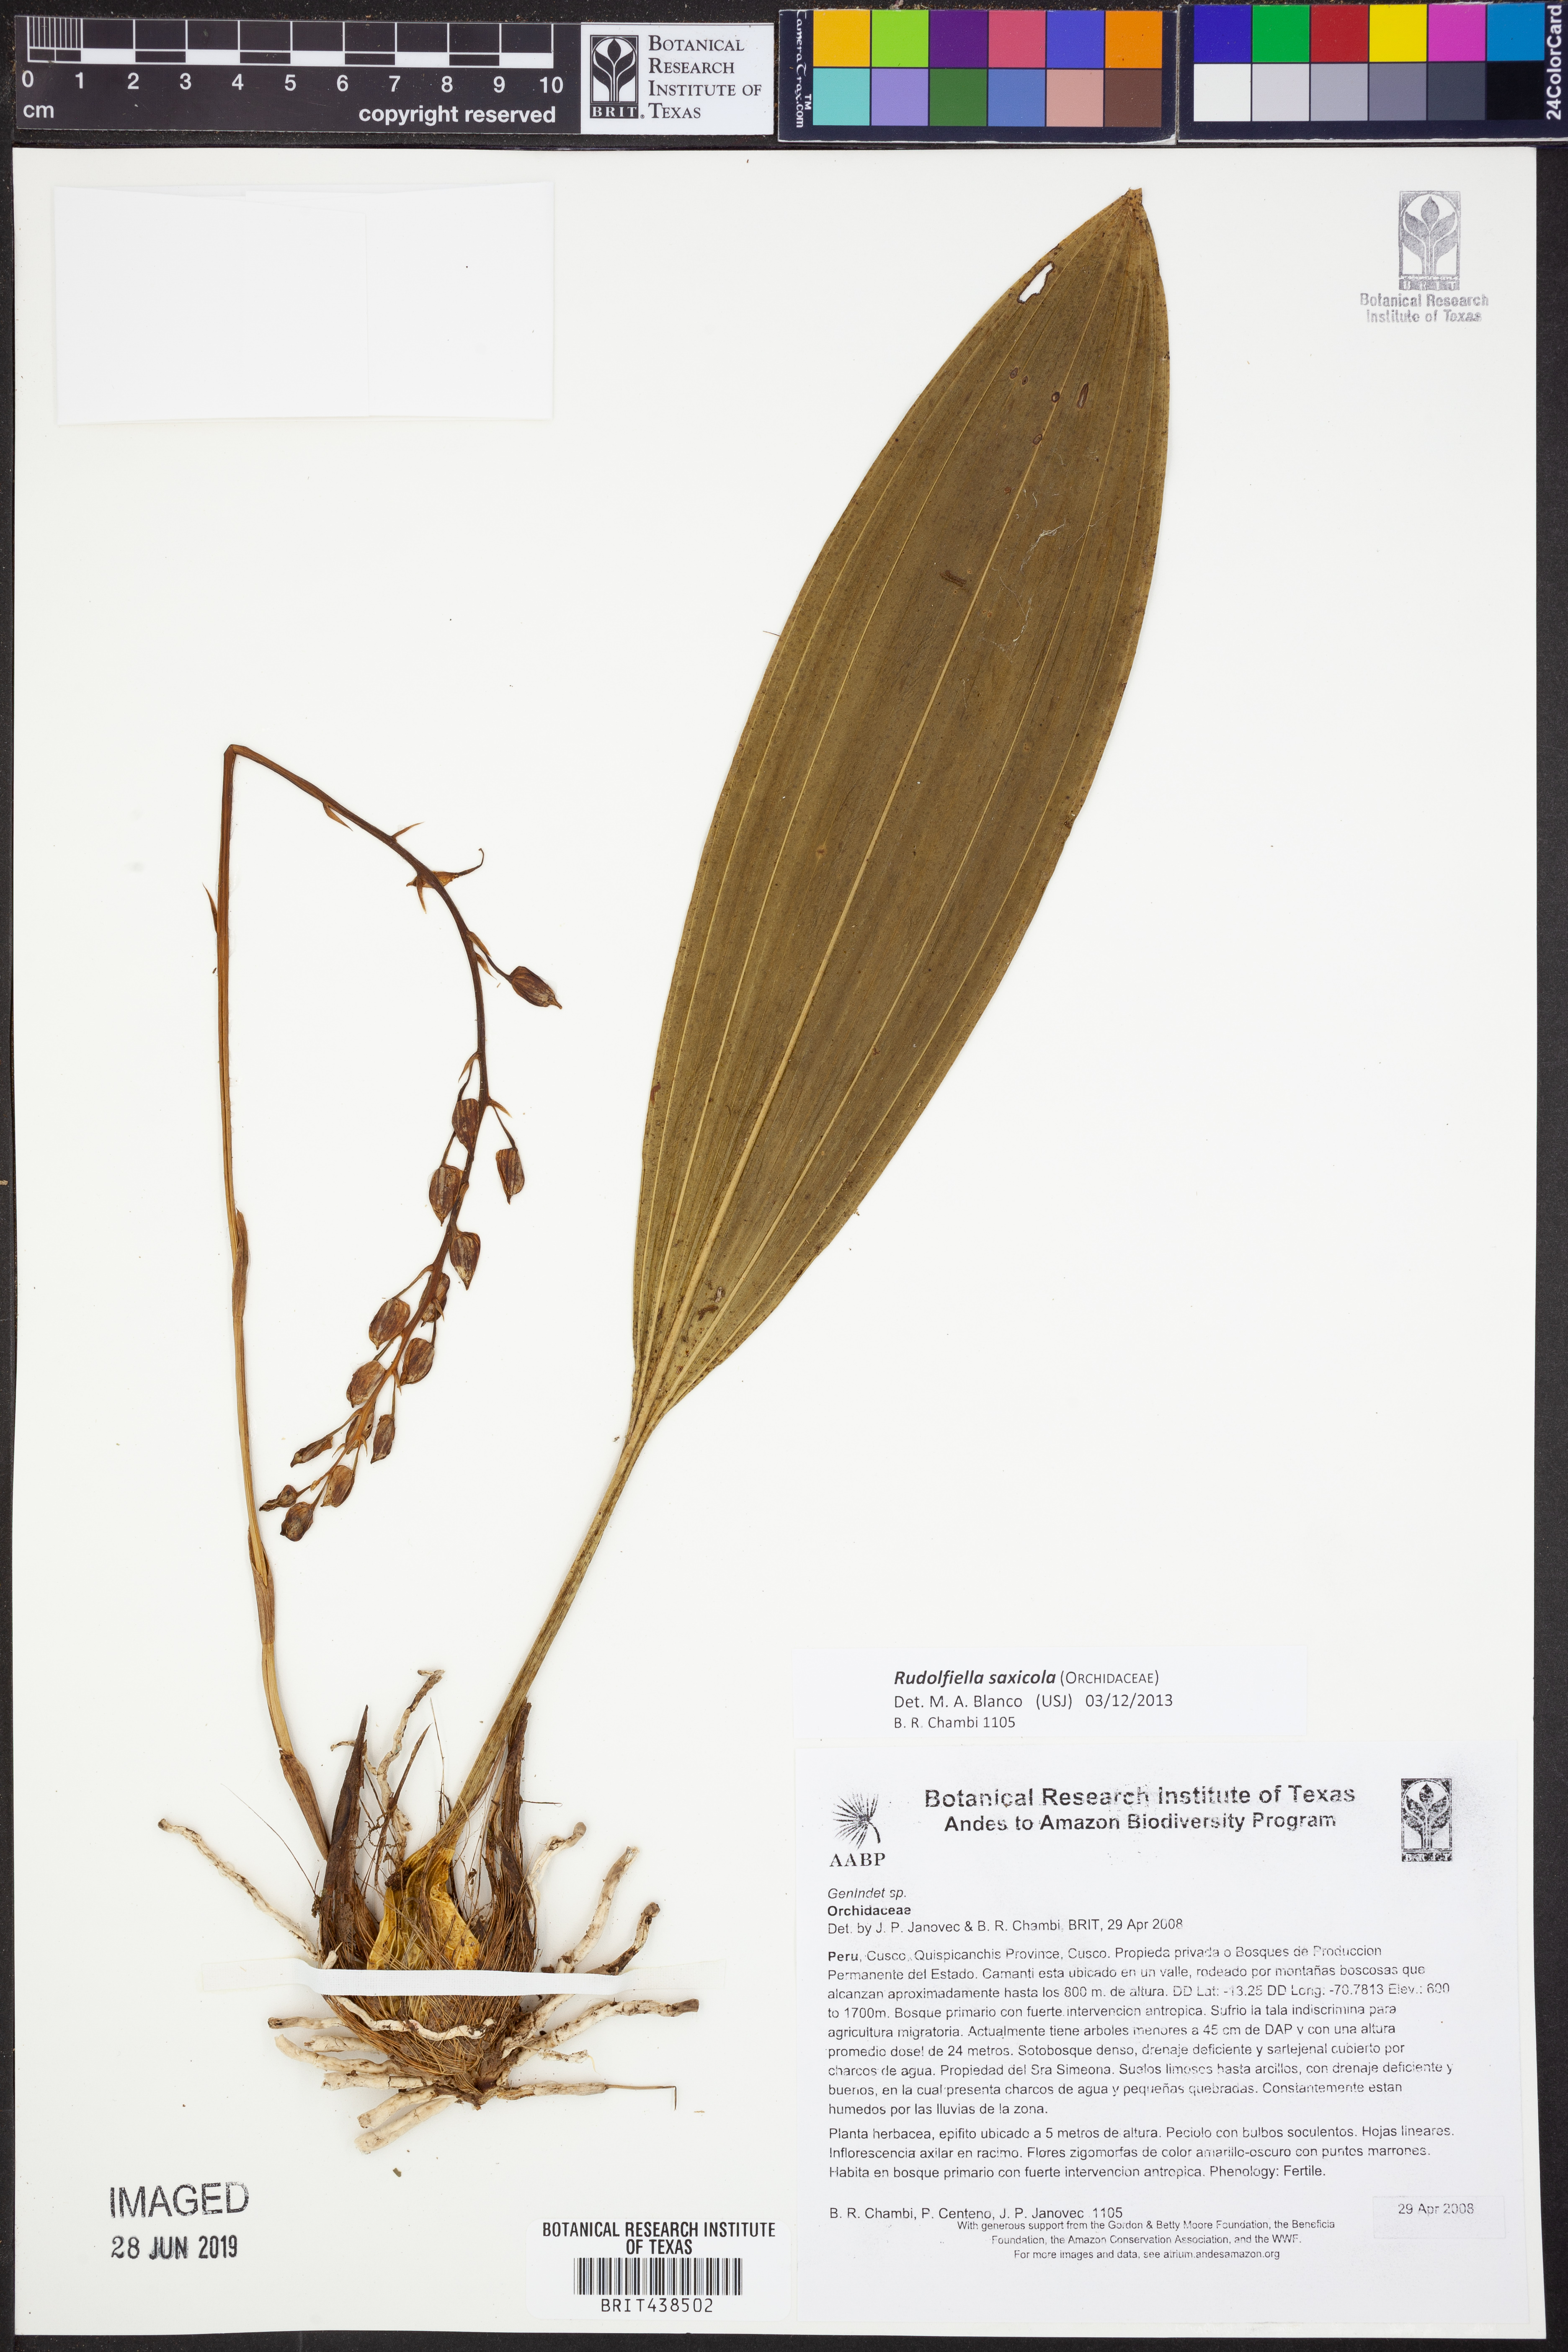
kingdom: Plantae
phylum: Tracheophyta
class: Liliopsida
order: Asparagales
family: Orchidaceae
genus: Rudolfiella
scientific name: Rudolfiella floribunda
